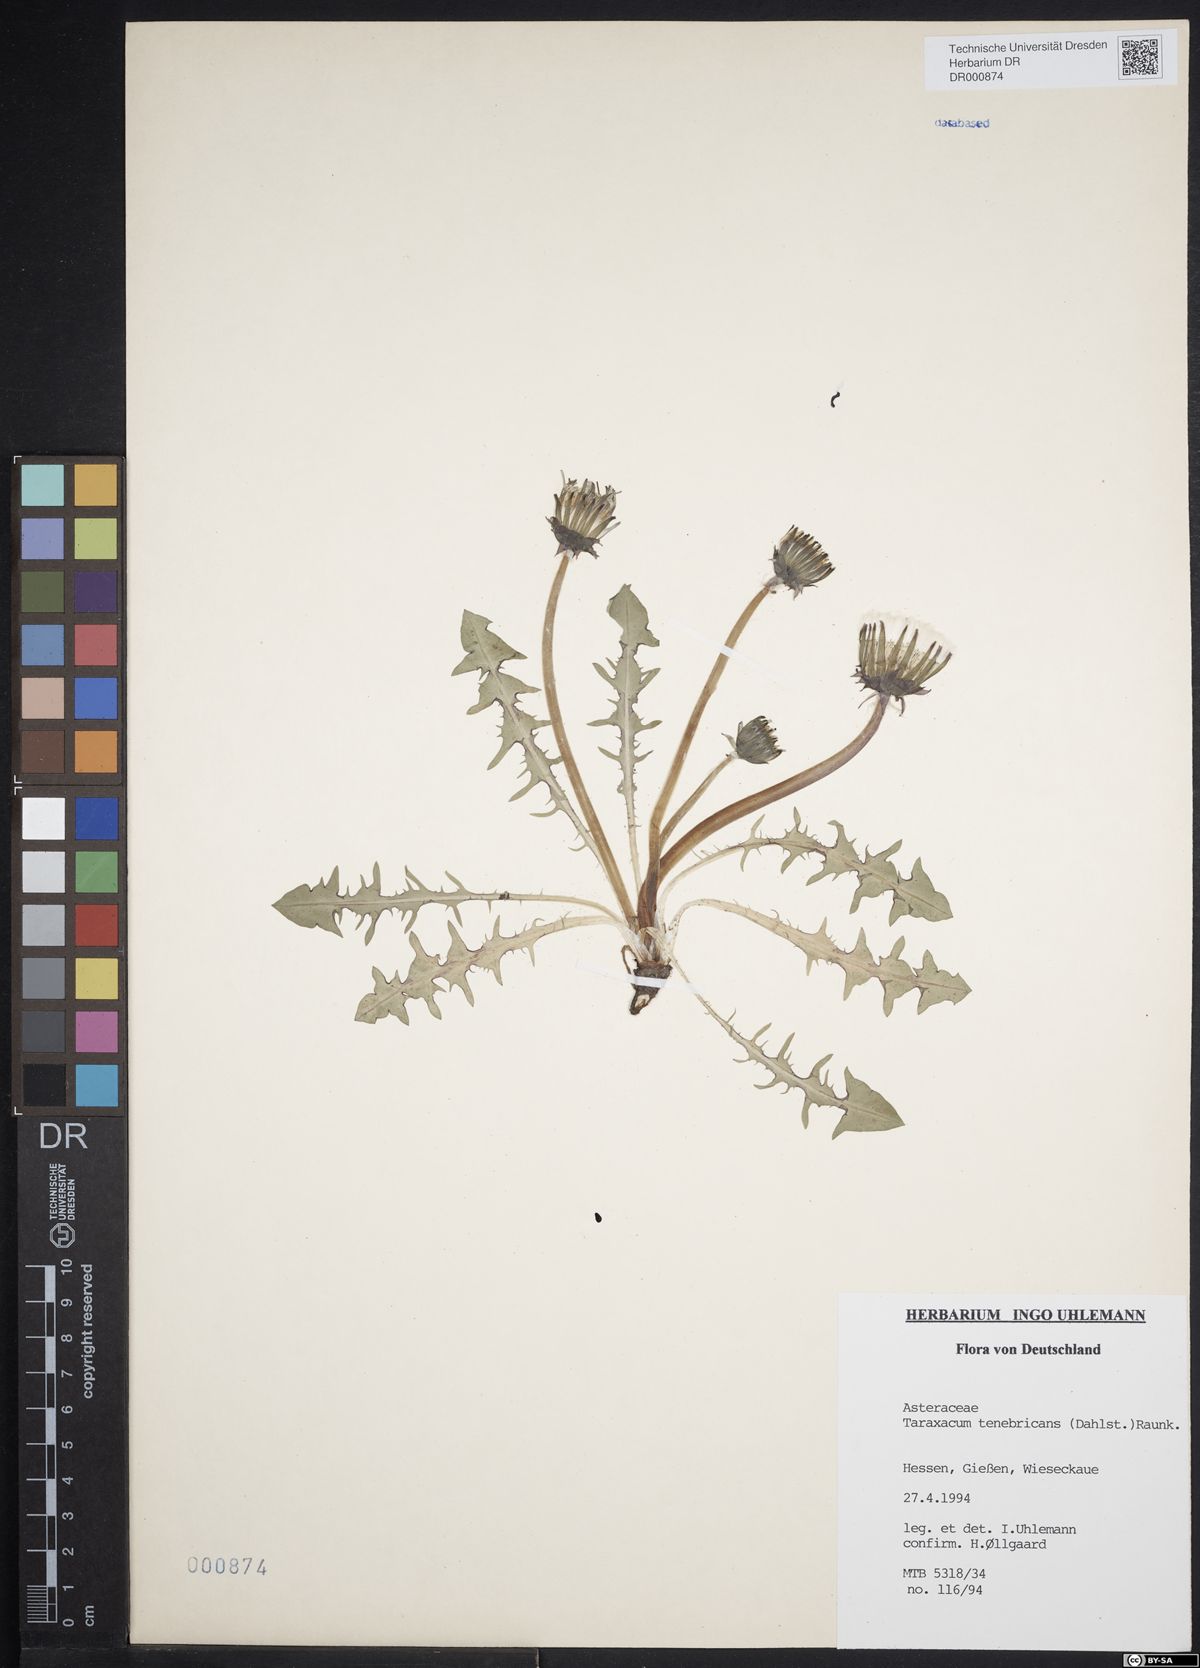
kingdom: Plantae
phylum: Tracheophyta
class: Magnoliopsida
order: Asterales
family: Asteraceae
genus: Taraxacum
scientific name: Taraxacum tenebricans
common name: Shiny-leaved dandelion
